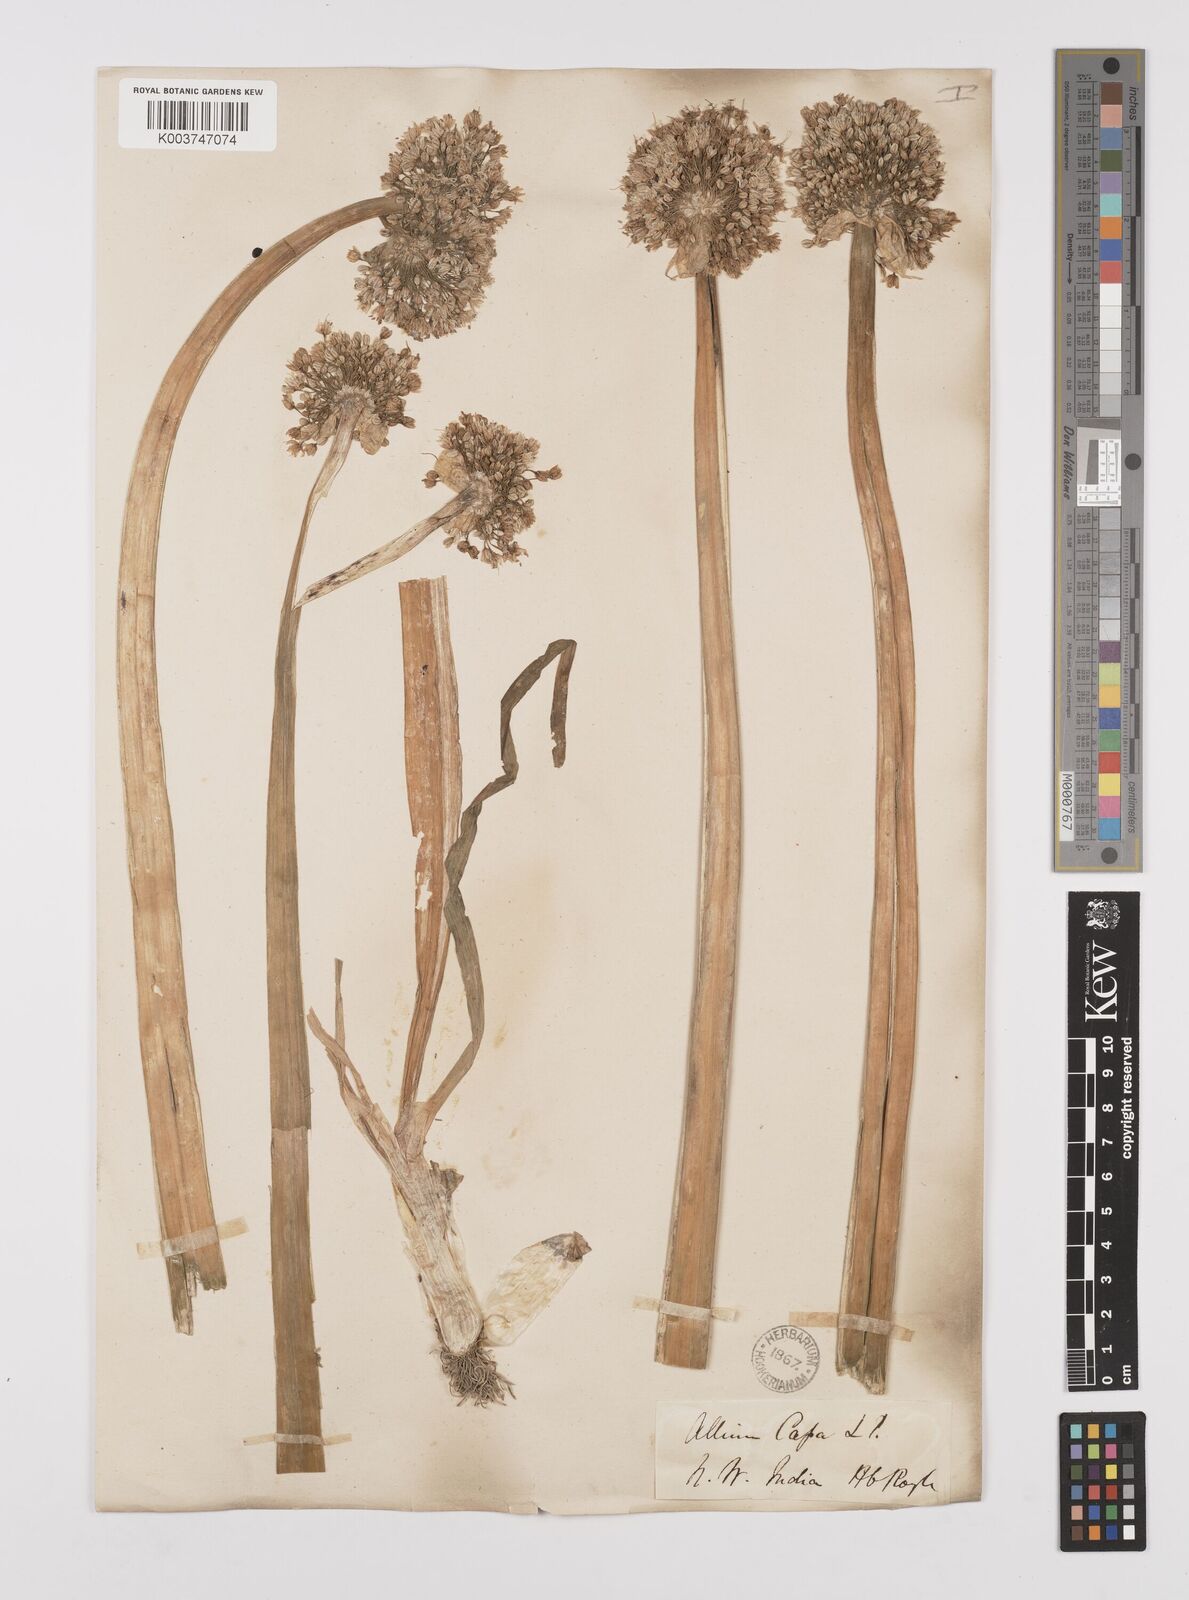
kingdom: Plantae
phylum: Tracheophyta
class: Liliopsida
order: Asparagales
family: Amaryllidaceae
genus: Allium
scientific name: Allium cepa
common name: Onion
